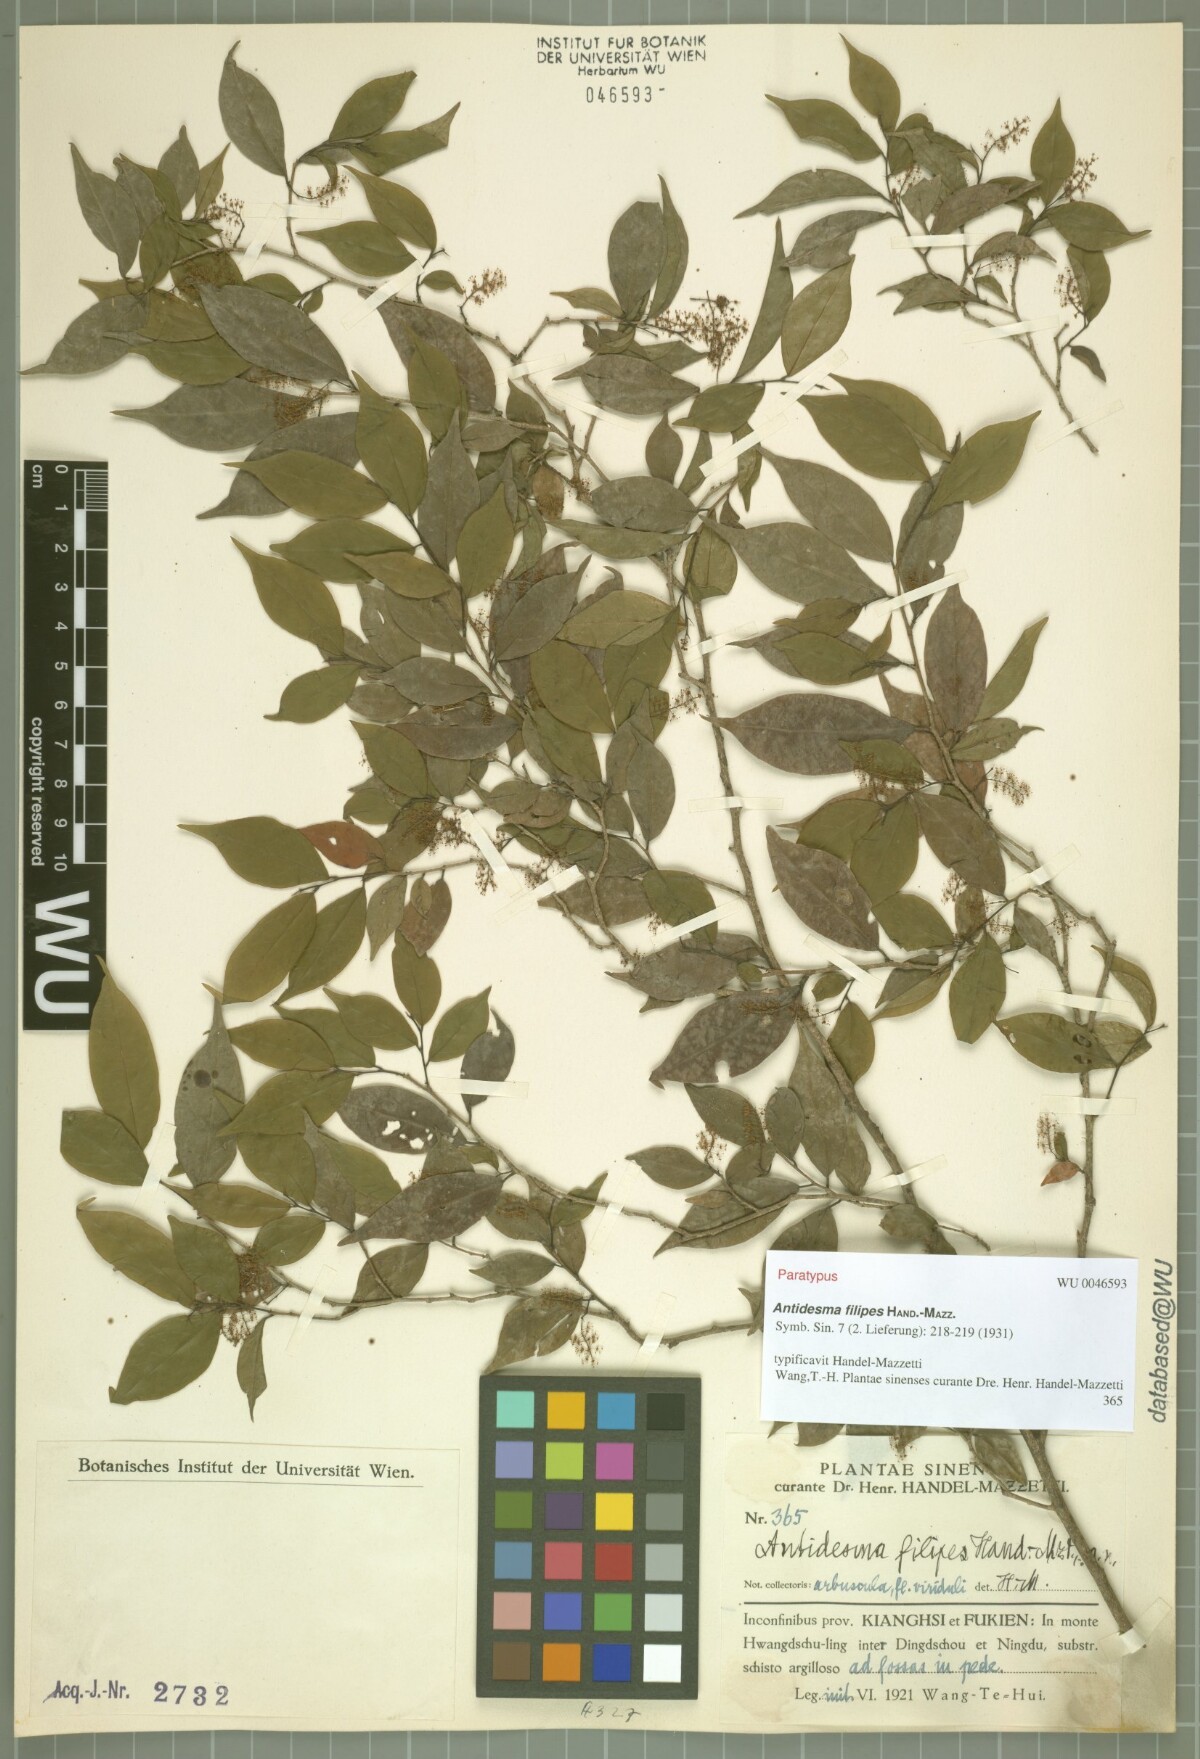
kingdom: Plantae
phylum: Tracheophyta
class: Magnoliopsida
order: Malpighiales
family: Phyllanthaceae
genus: Antidesma
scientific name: Antidesma japonicum
